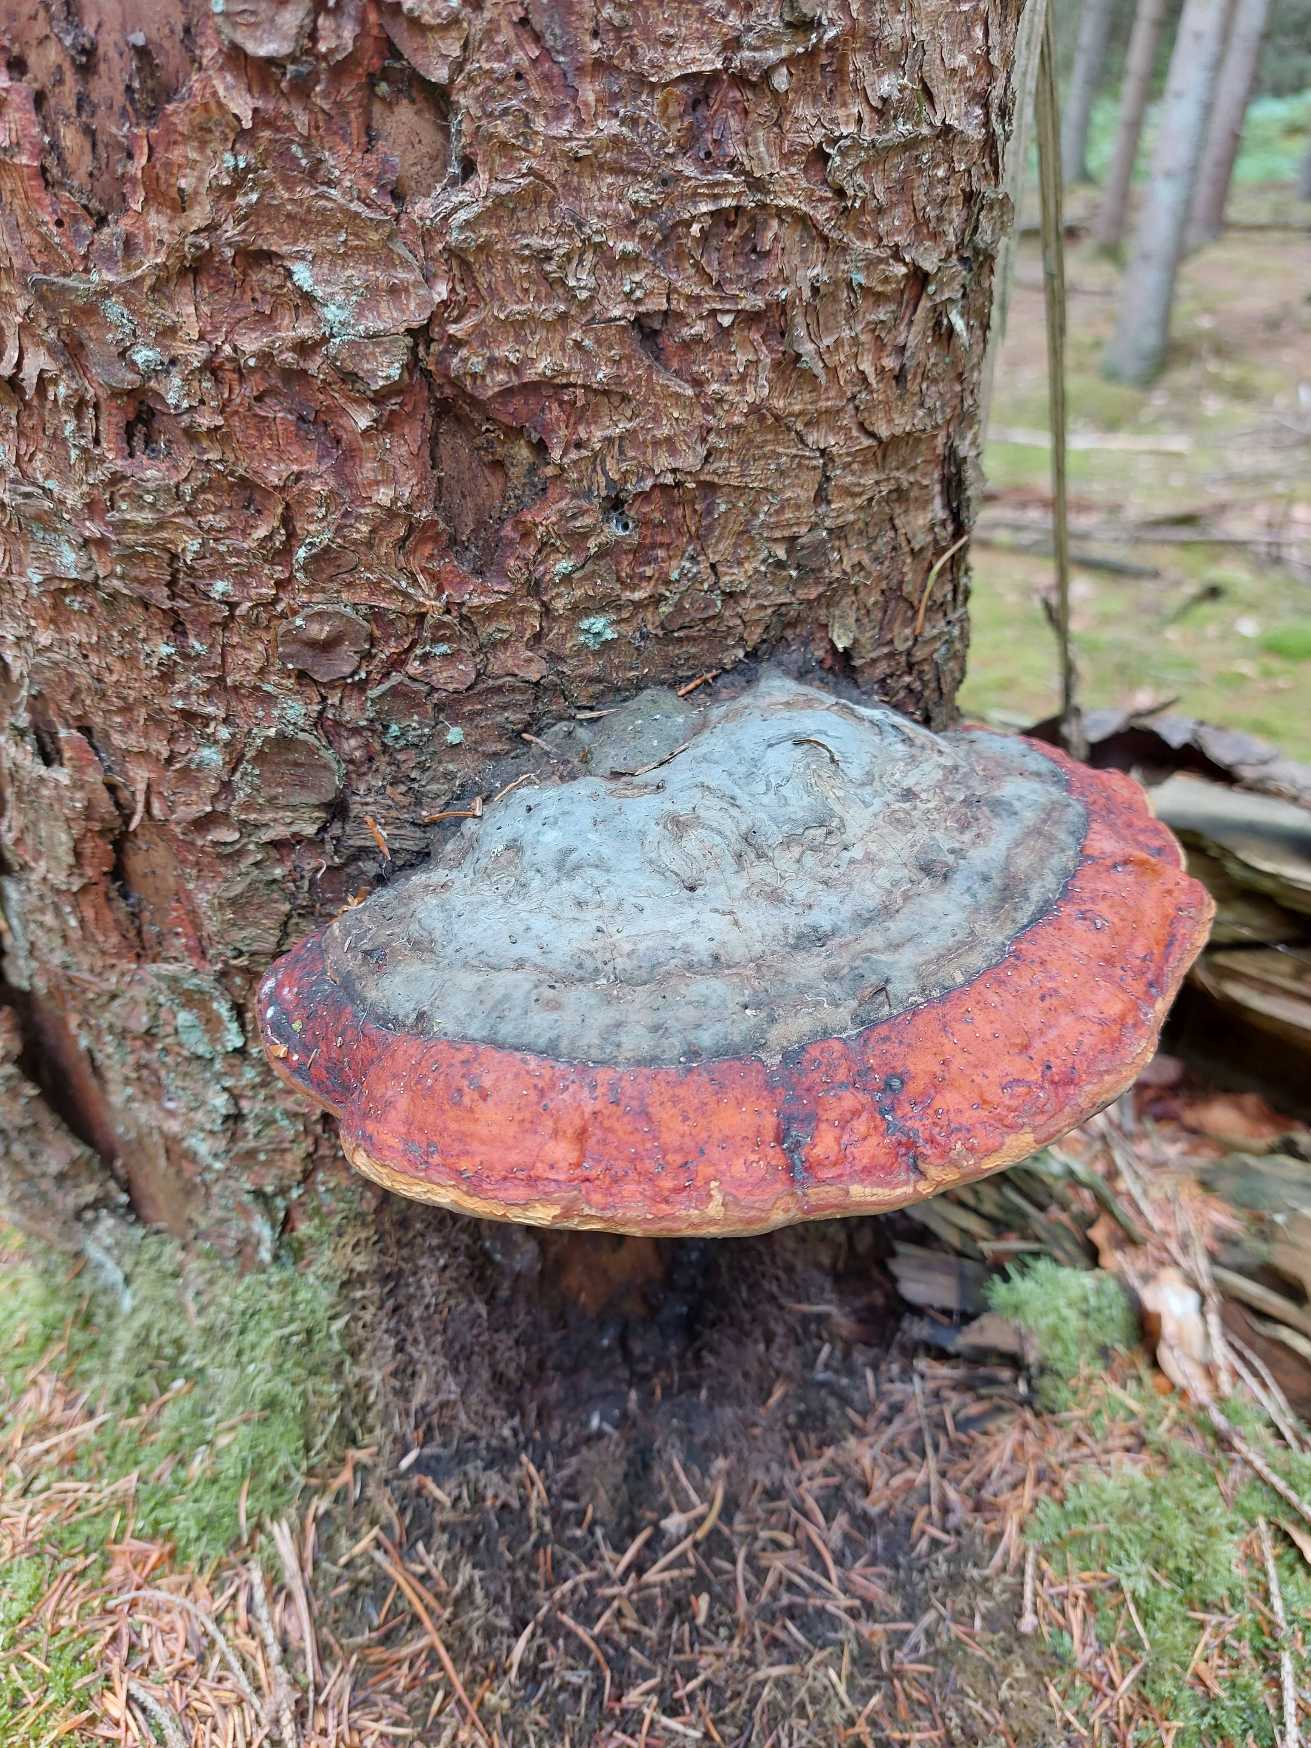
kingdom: Fungi
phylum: Basidiomycota
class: Agaricomycetes
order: Polyporales
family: Fomitopsidaceae
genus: Fomitopsis
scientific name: Fomitopsis pinicola
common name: Randbæltet hovporesvamp
